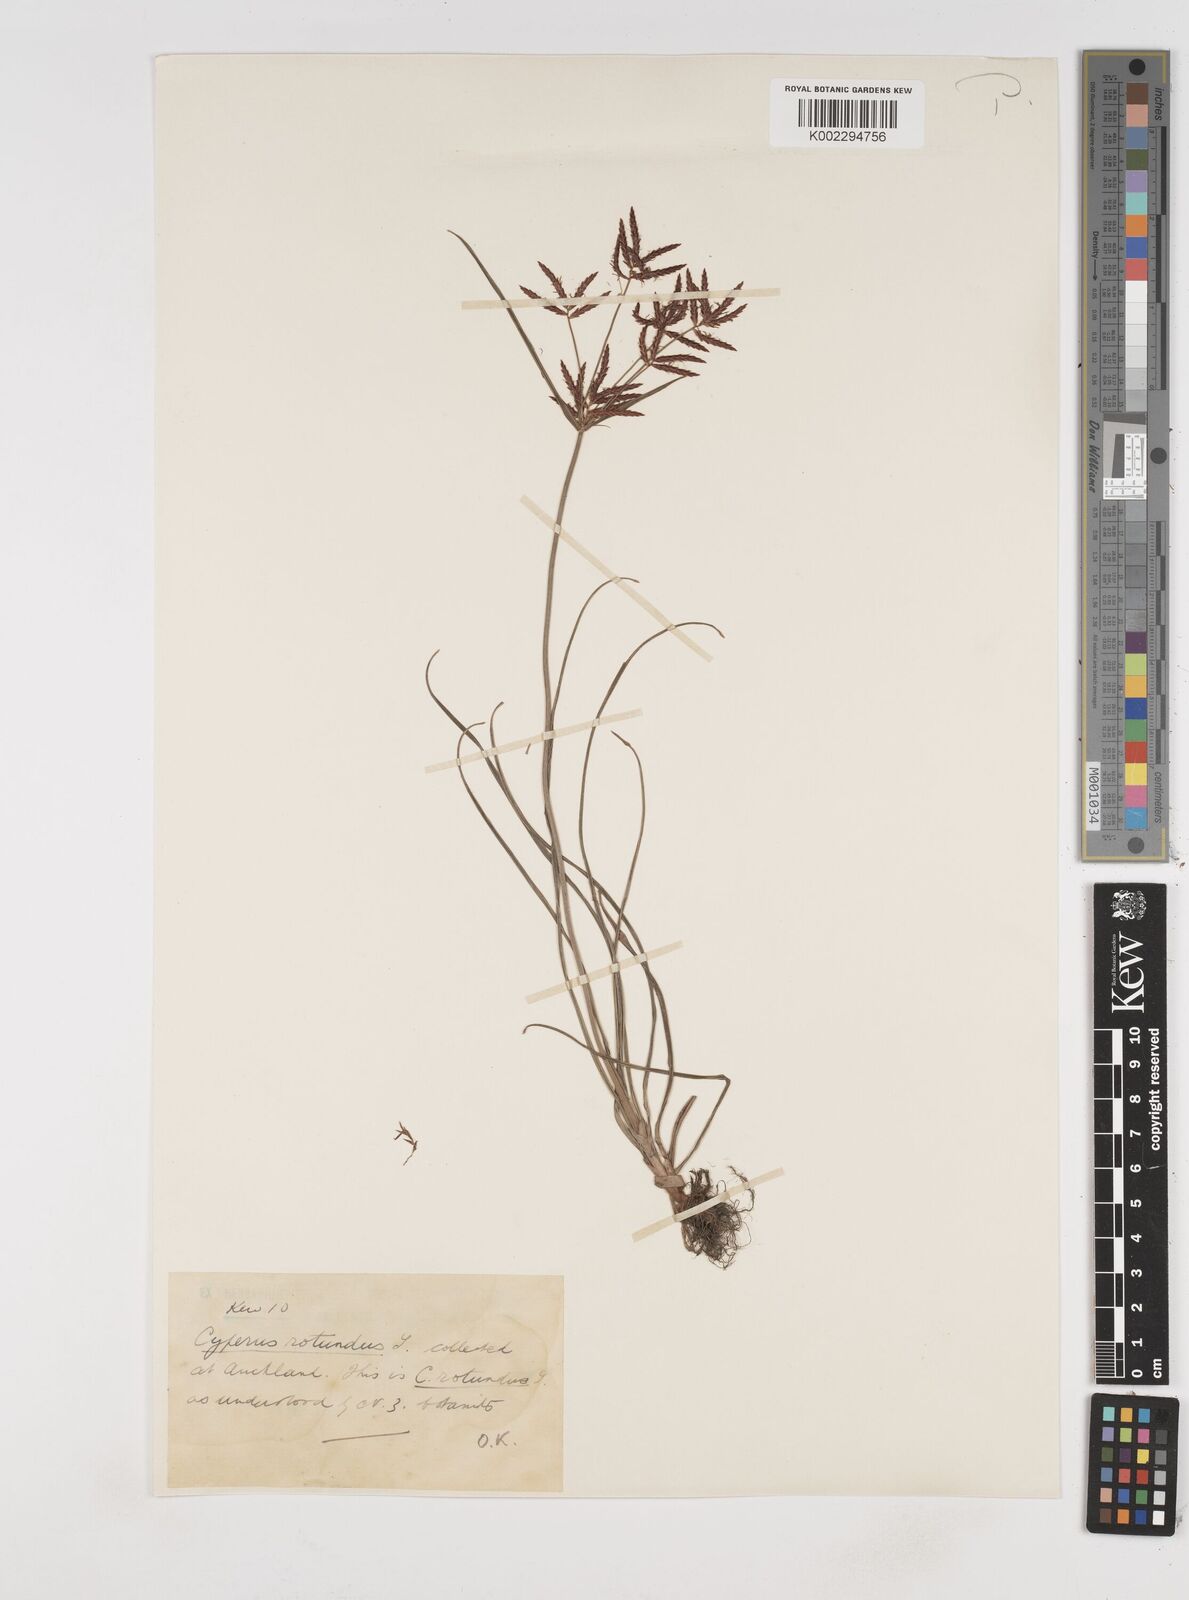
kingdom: Plantae
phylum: Tracheophyta
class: Liliopsida
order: Poales
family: Cyperaceae
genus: Cyperus
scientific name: Cyperus rotundus
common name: Nutgrass
